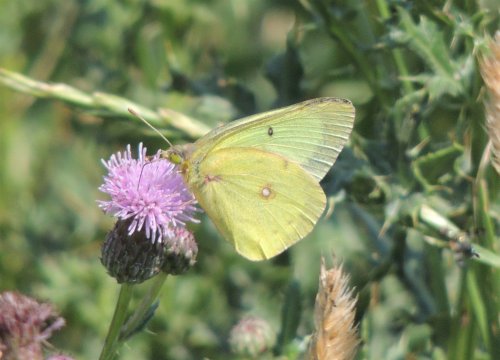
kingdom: Animalia
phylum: Arthropoda
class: Insecta
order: Lepidoptera
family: Pieridae
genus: Colias
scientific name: Colias philodice
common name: Clouded Sulphur
